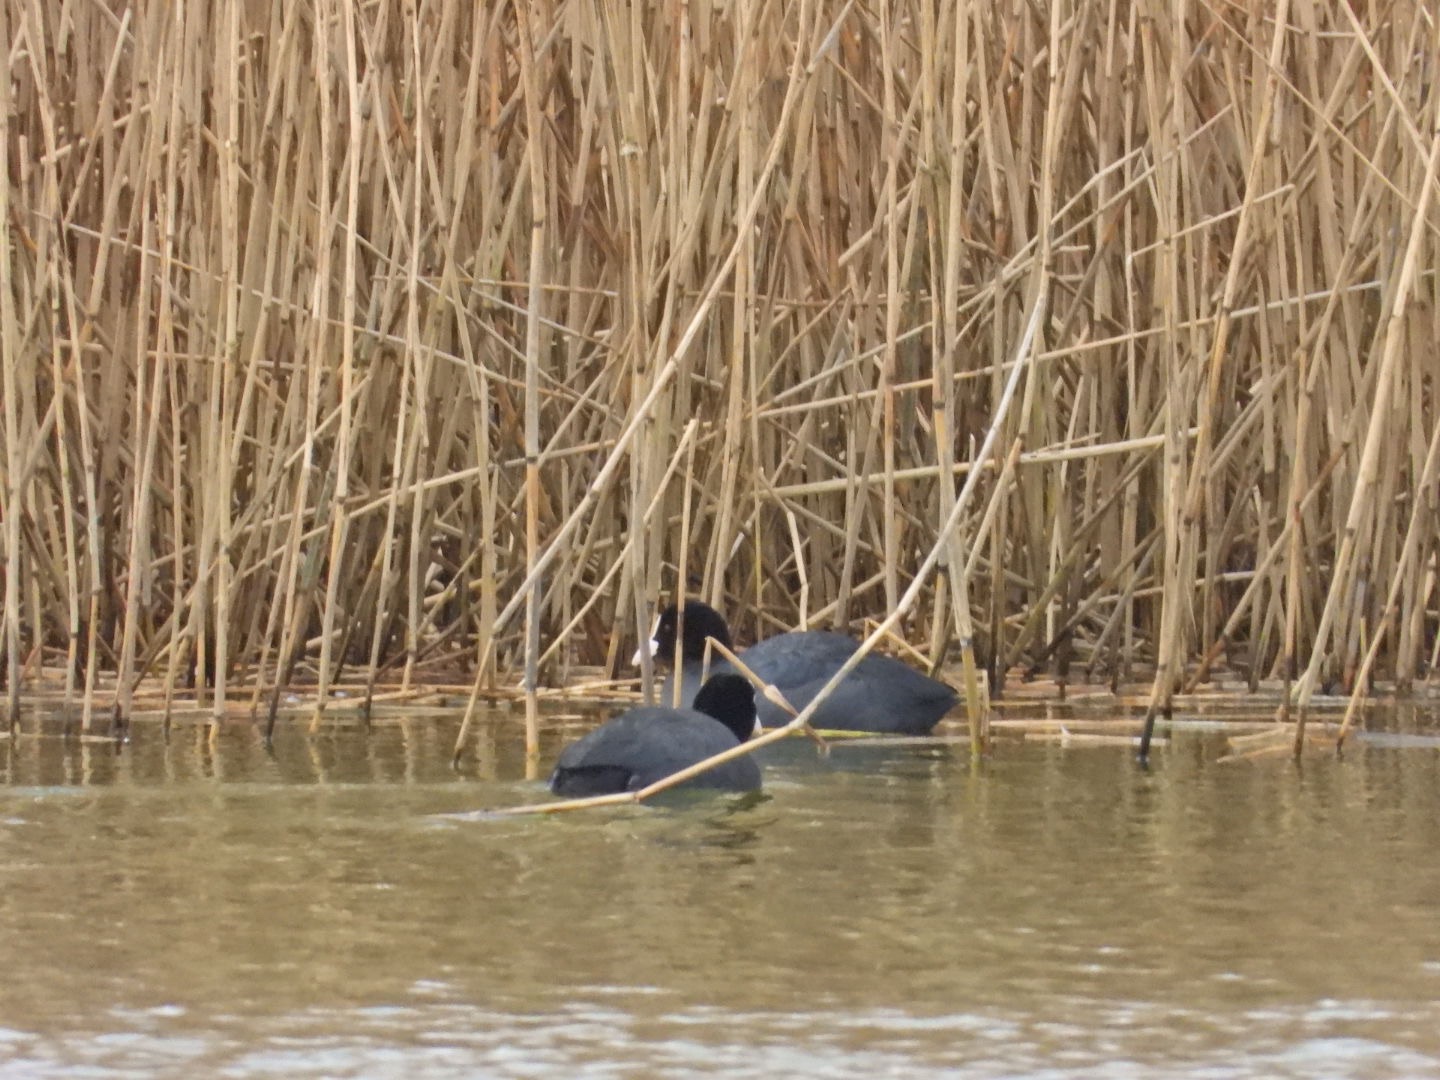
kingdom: Animalia
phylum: Chordata
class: Aves
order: Gruiformes
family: Rallidae
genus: Fulica
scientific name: Fulica atra
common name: Blishøne
